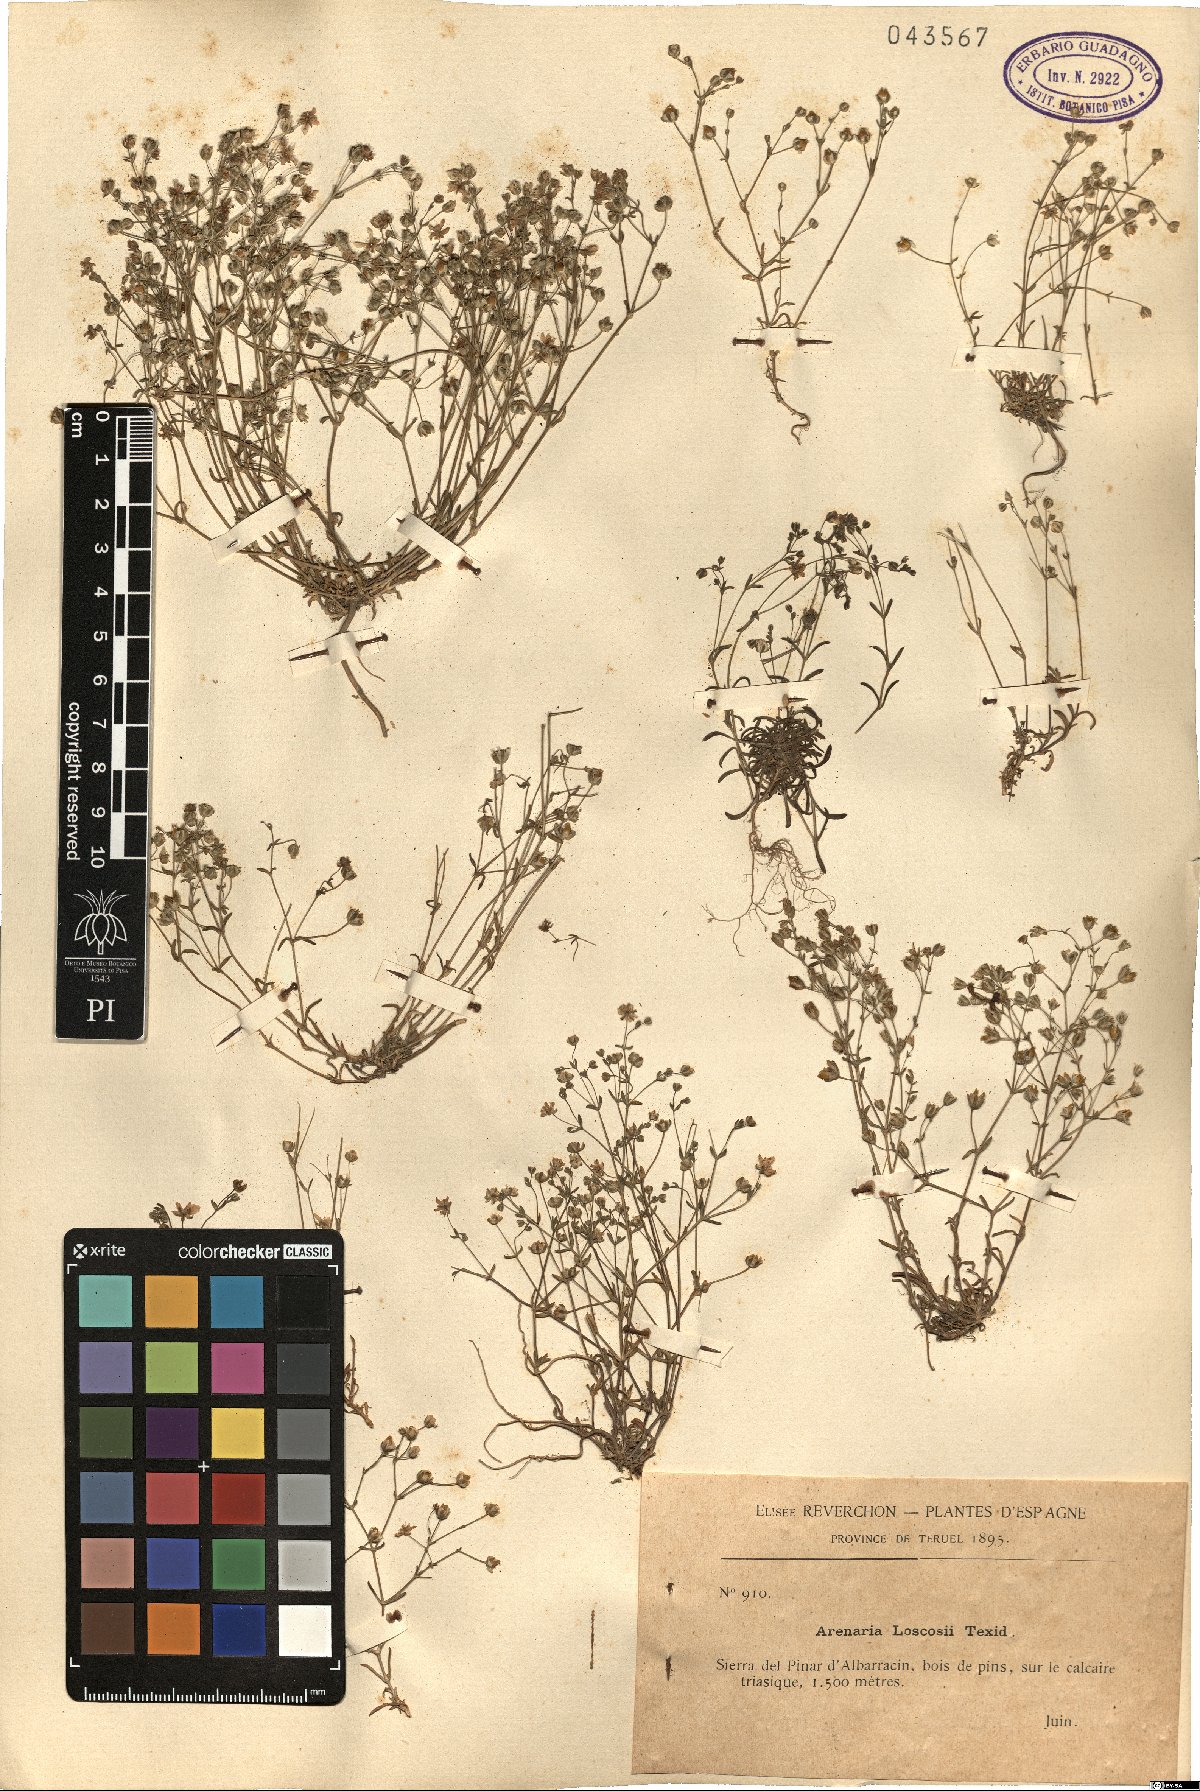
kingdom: Plantae
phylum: Tracheophyta
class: Magnoliopsida
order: Caryophyllales
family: Caryophyllaceae
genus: Arenaria
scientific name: Arenaria conimbricensis
